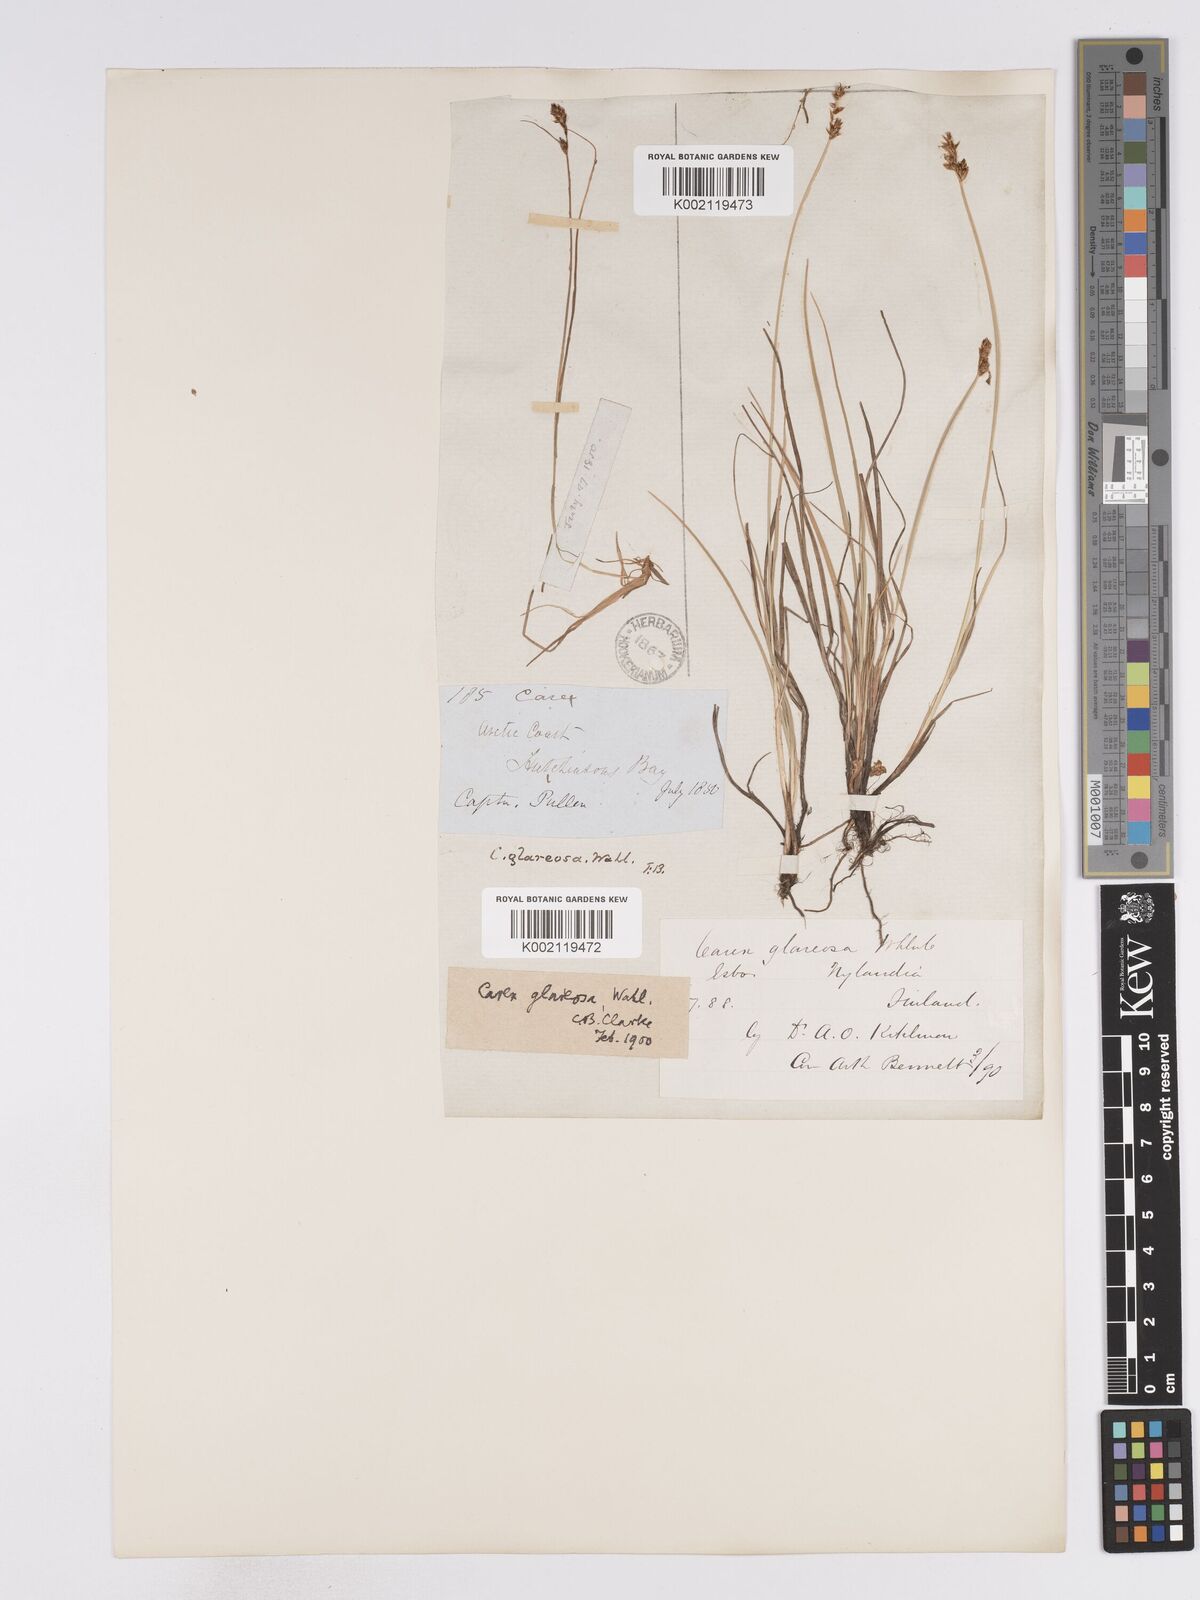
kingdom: Plantae
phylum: Tracheophyta
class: Liliopsida
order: Poales
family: Cyperaceae
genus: Carex
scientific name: Carex glareosa
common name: Clustered sedge
